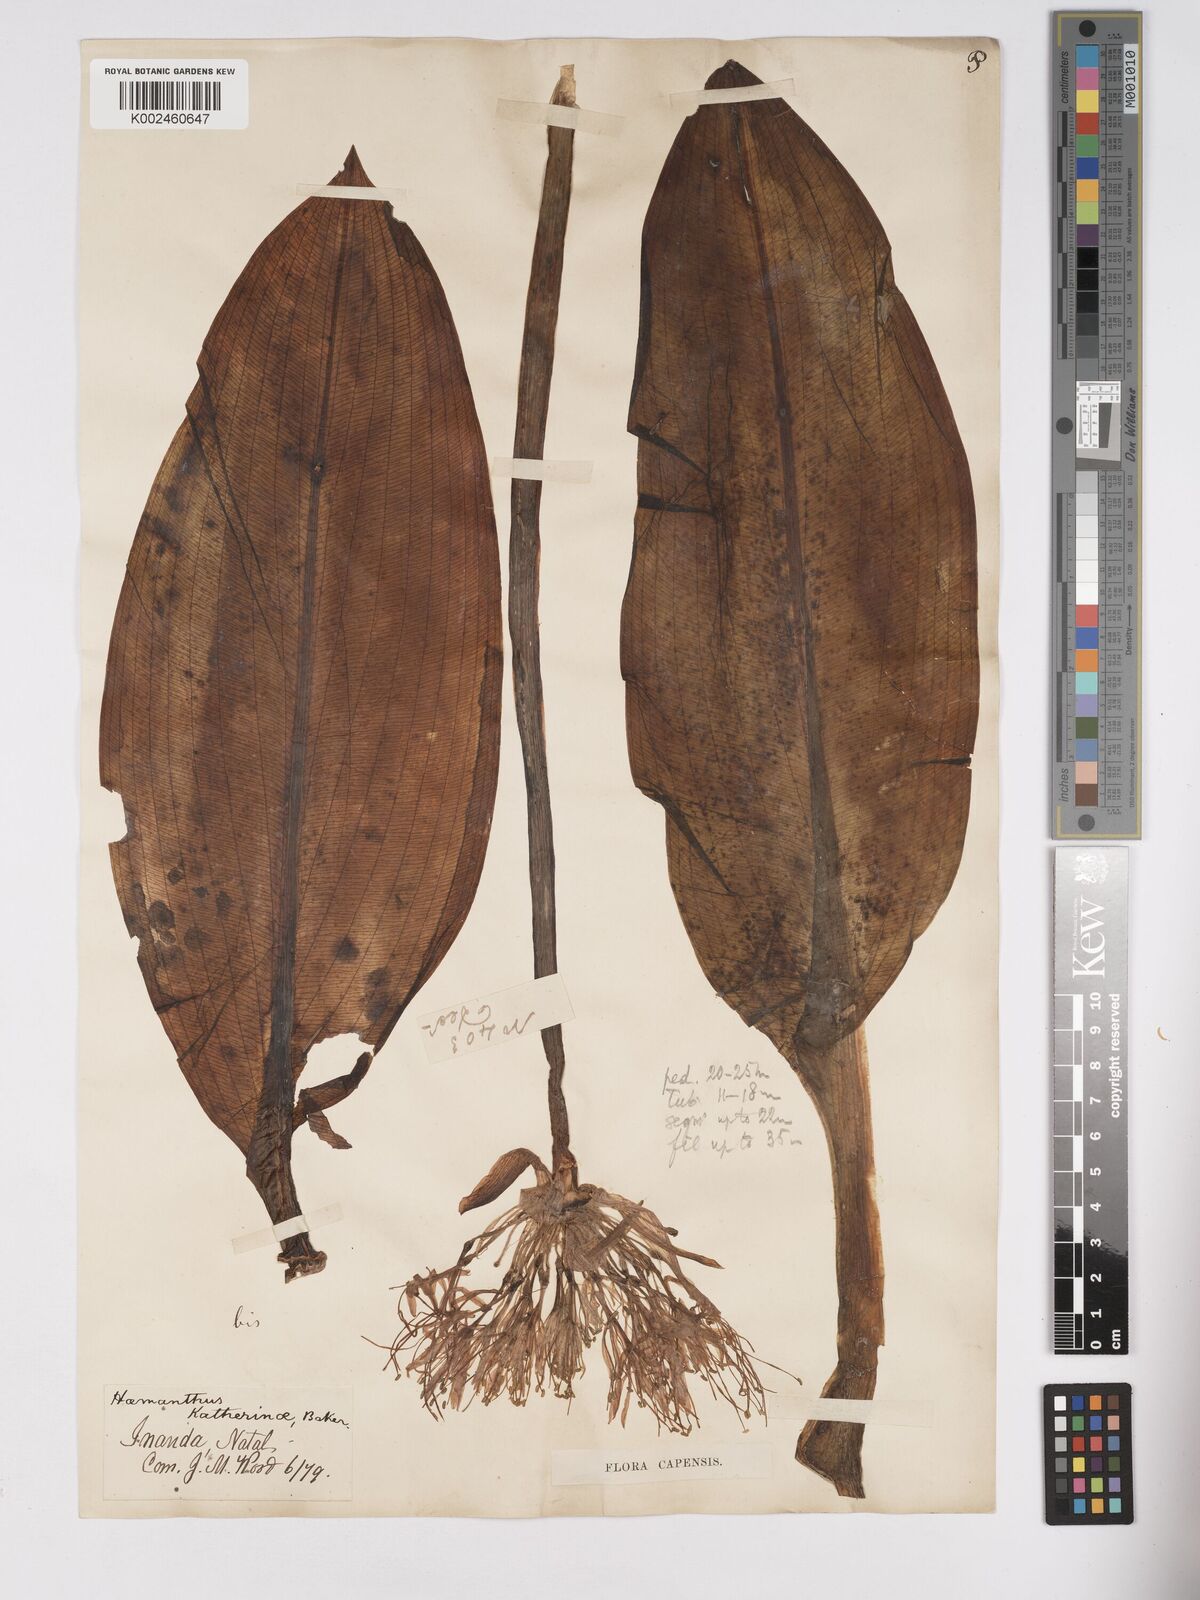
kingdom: Plantae
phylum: Tracheophyta
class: Liliopsida
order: Asparagales
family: Amaryllidaceae
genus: Scadoxus
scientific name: Scadoxus multiflorus
